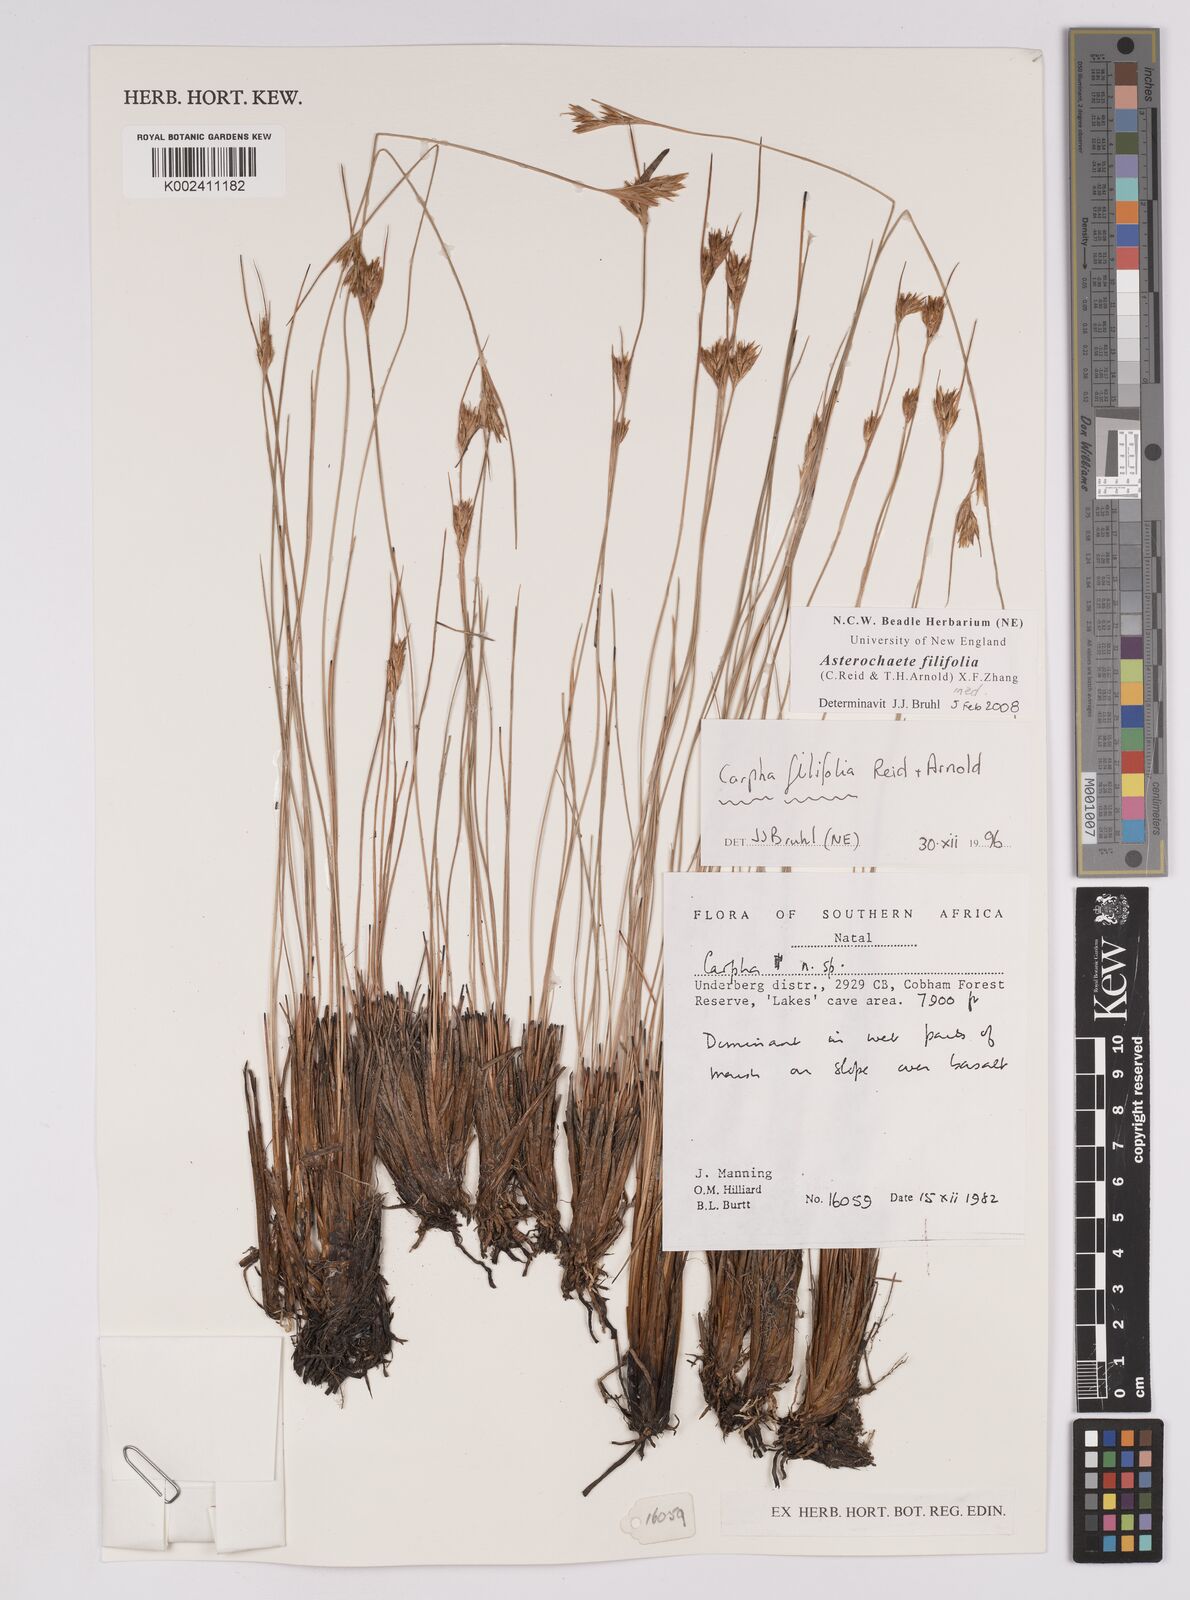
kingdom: Plantae
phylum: Tracheophyta
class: Liliopsida
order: Poales
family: Cyperaceae
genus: Carpha
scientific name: Carpha filifolia
